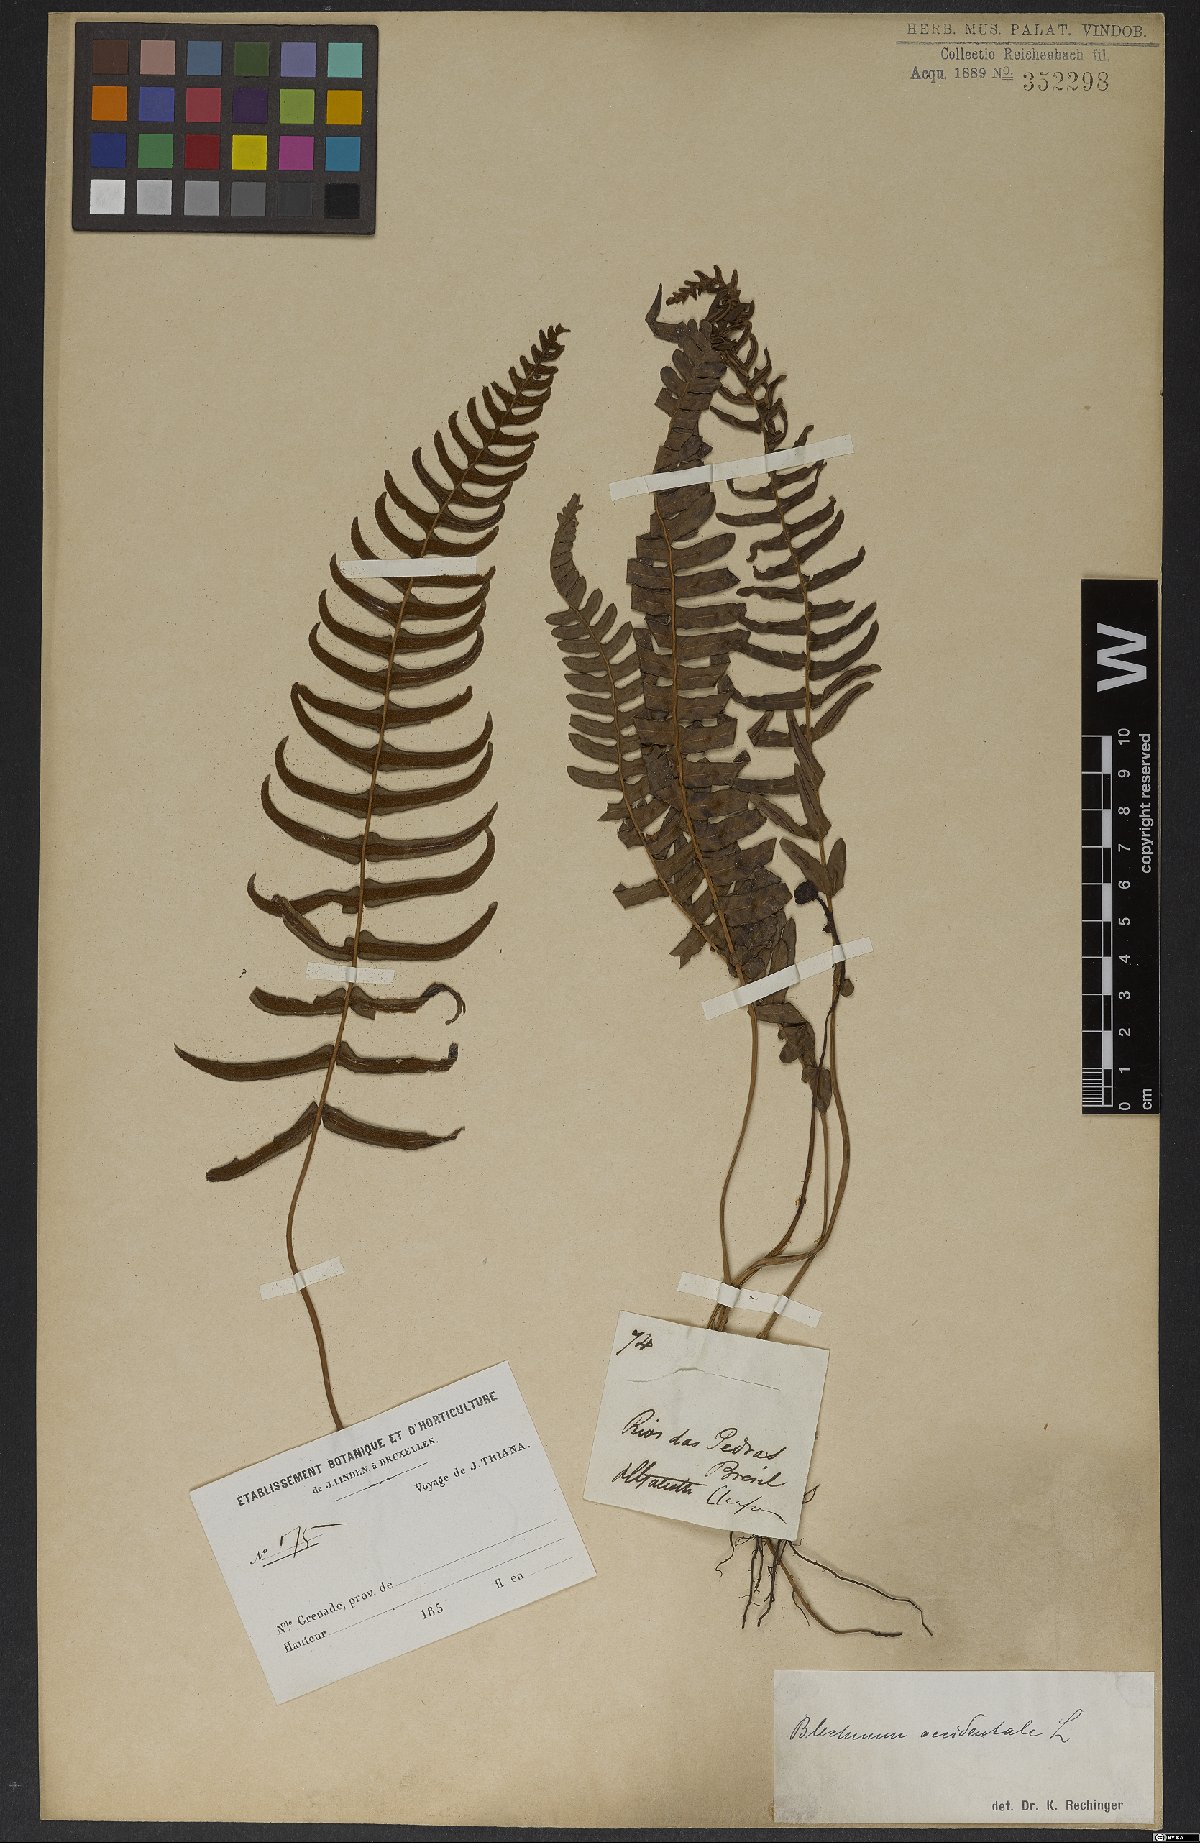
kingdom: Plantae
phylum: Tracheophyta
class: Polypodiopsida
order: Polypodiales
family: Blechnaceae
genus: Blechnum
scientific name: Blechnum occidentale
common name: Hammock fern
